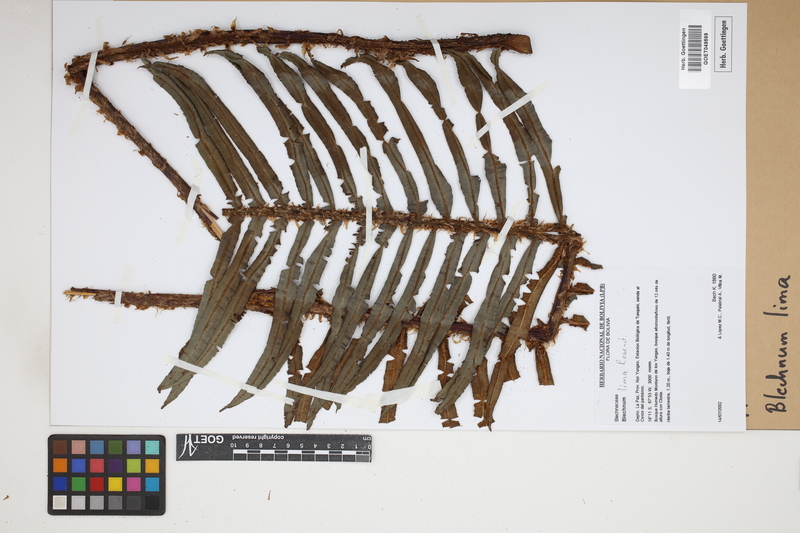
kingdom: Plantae
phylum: Tracheophyta
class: Polypodiopsida
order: Polypodiales
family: Blechnaceae
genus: Parablechnum
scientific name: Parablechnum lima
